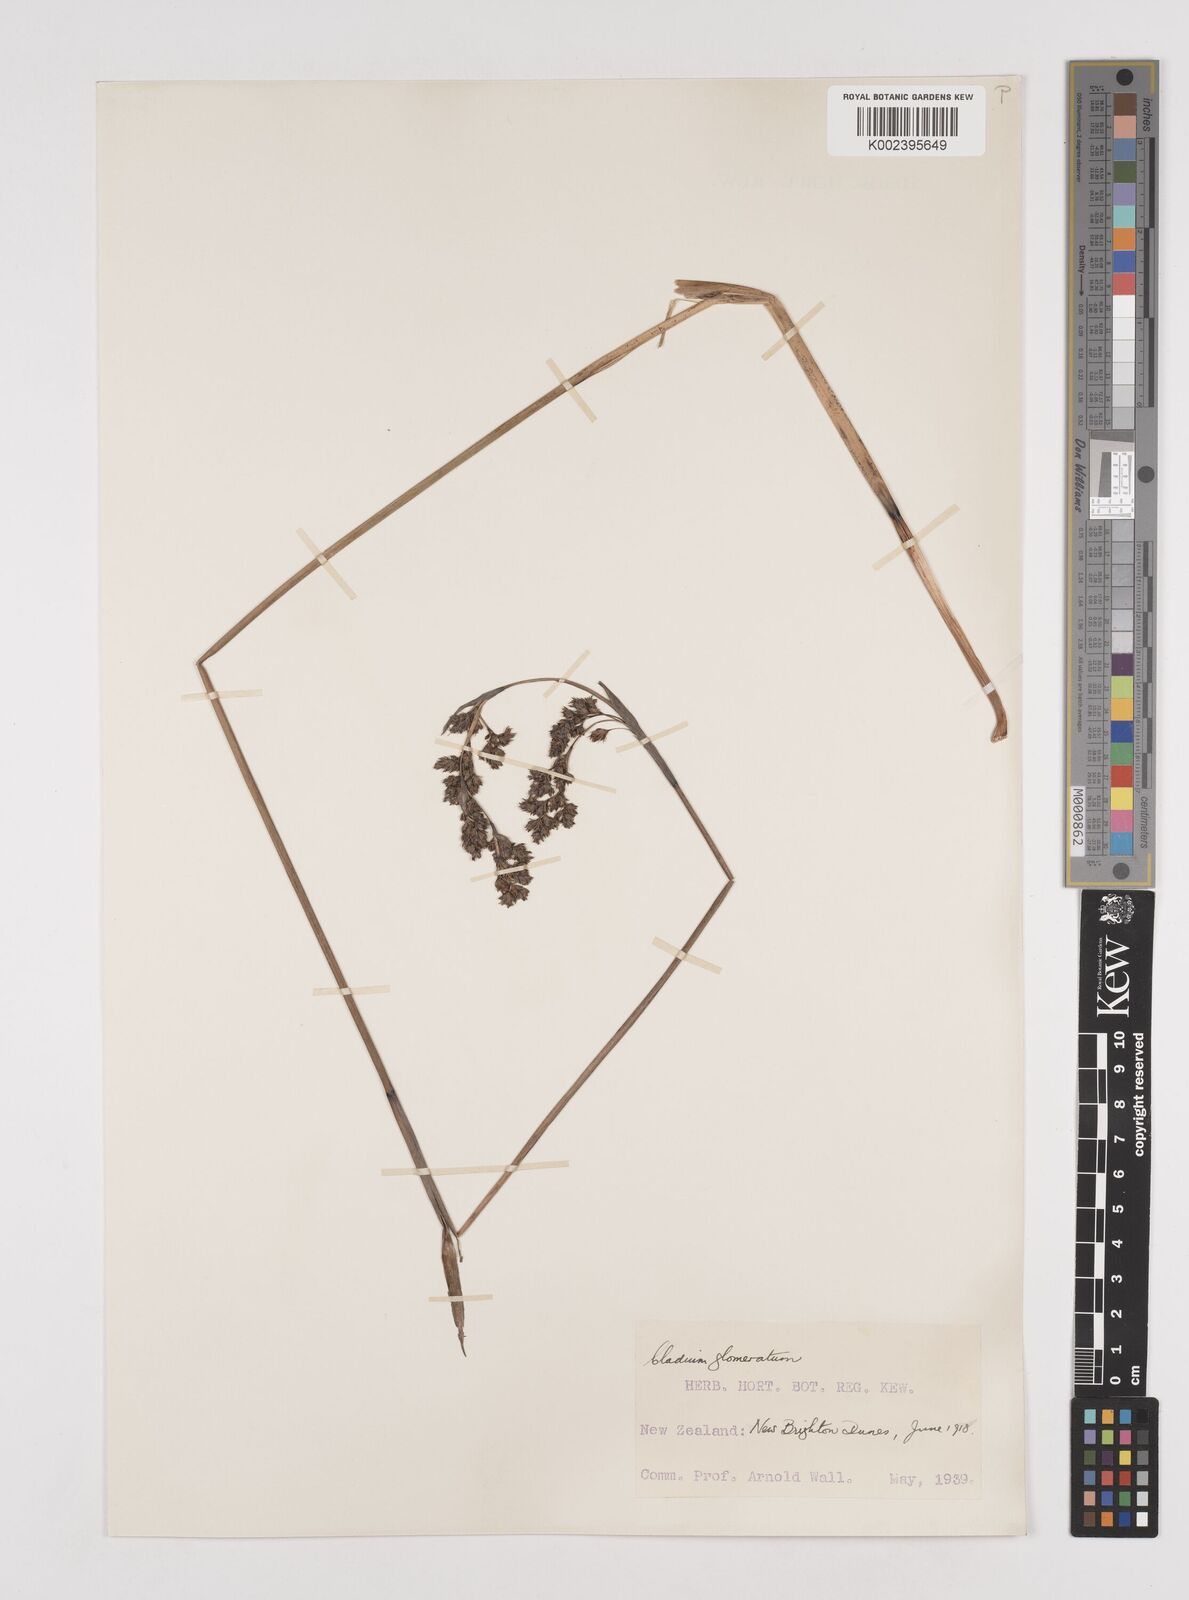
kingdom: Plantae
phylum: Tracheophyta
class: Liliopsida
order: Poales
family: Cyperaceae
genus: Machaerina
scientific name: Machaerina rubiginosa
